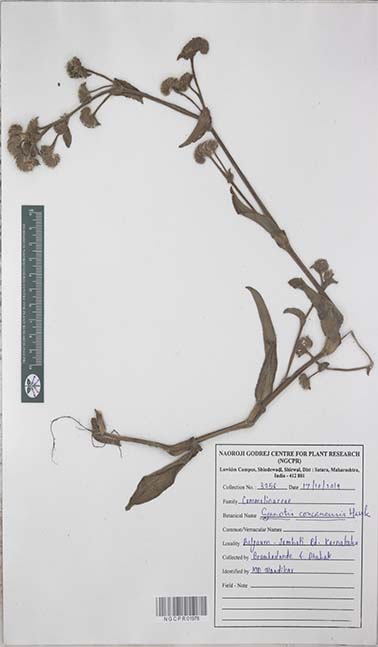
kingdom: Plantae
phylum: Tracheophyta
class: Liliopsida
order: Commelinales
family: Commelinaceae
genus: Cyanotis
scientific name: Cyanotis tuberosa
